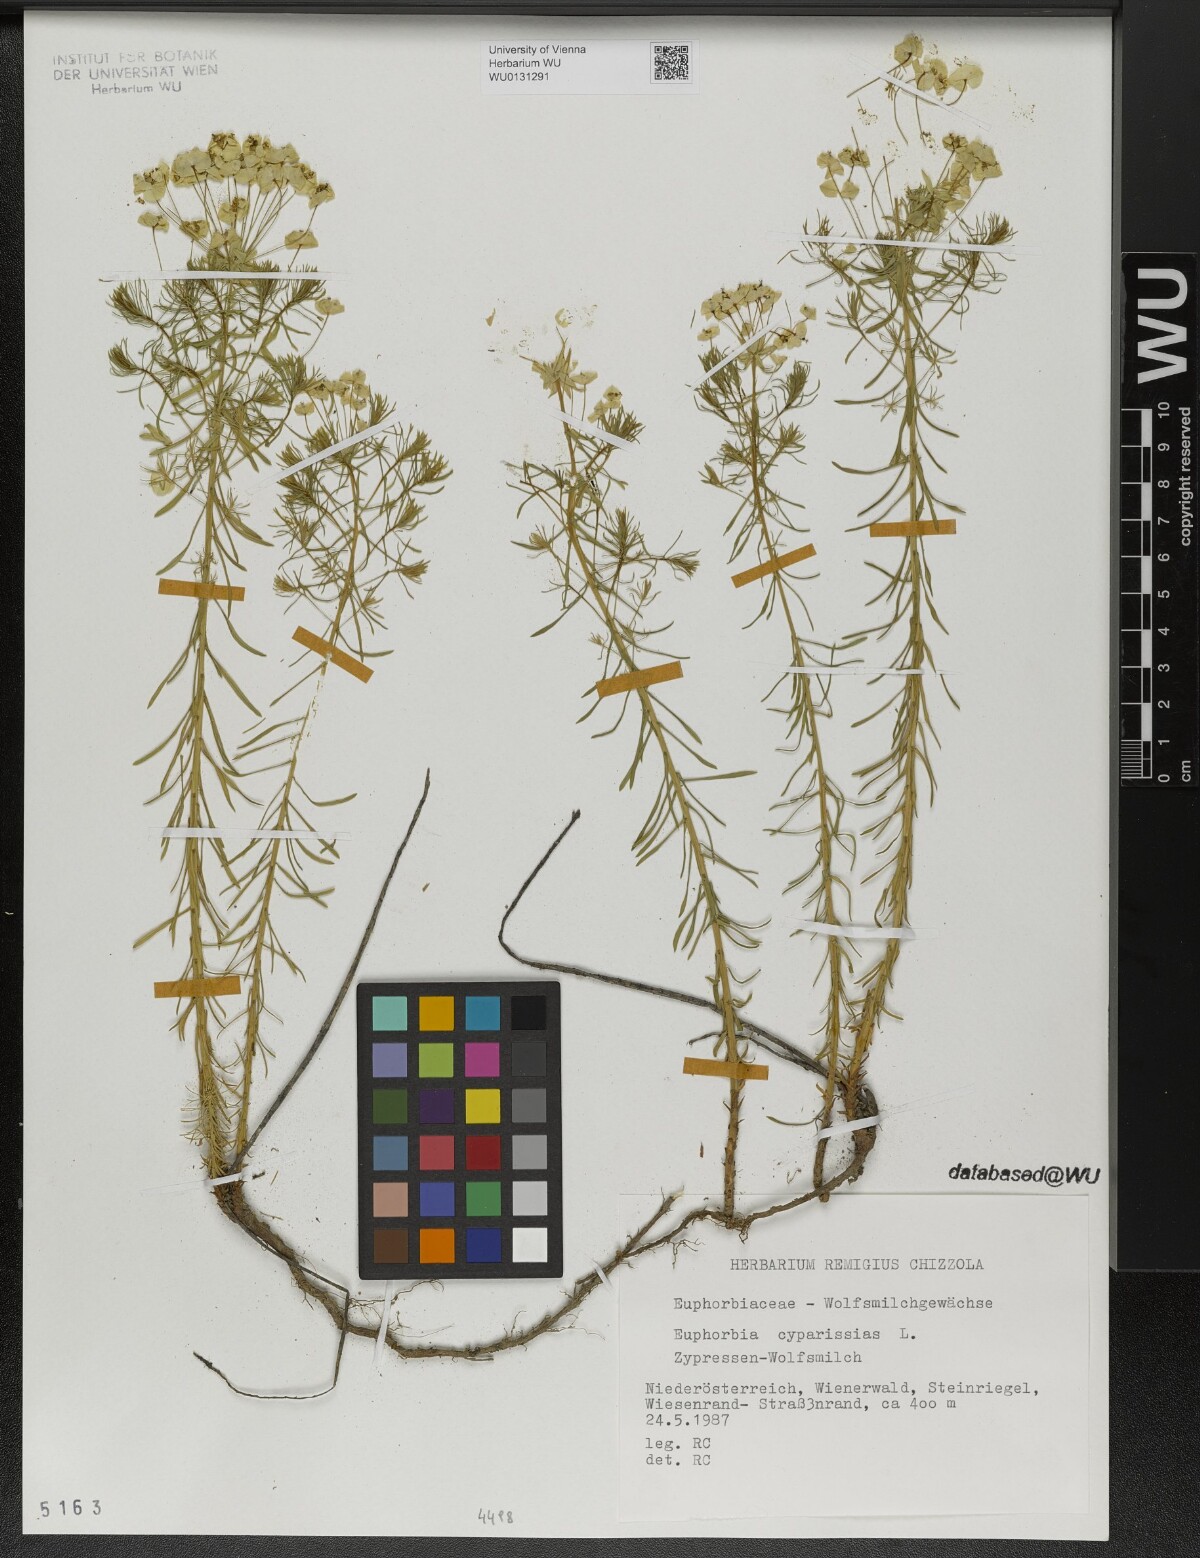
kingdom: Plantae
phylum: Tracheophyta
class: Magnoliopsida
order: Malpighiales
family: Euphorbiaceae
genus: Euphorbia
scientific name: Euphorbia cyparissias
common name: Cypress spurge
